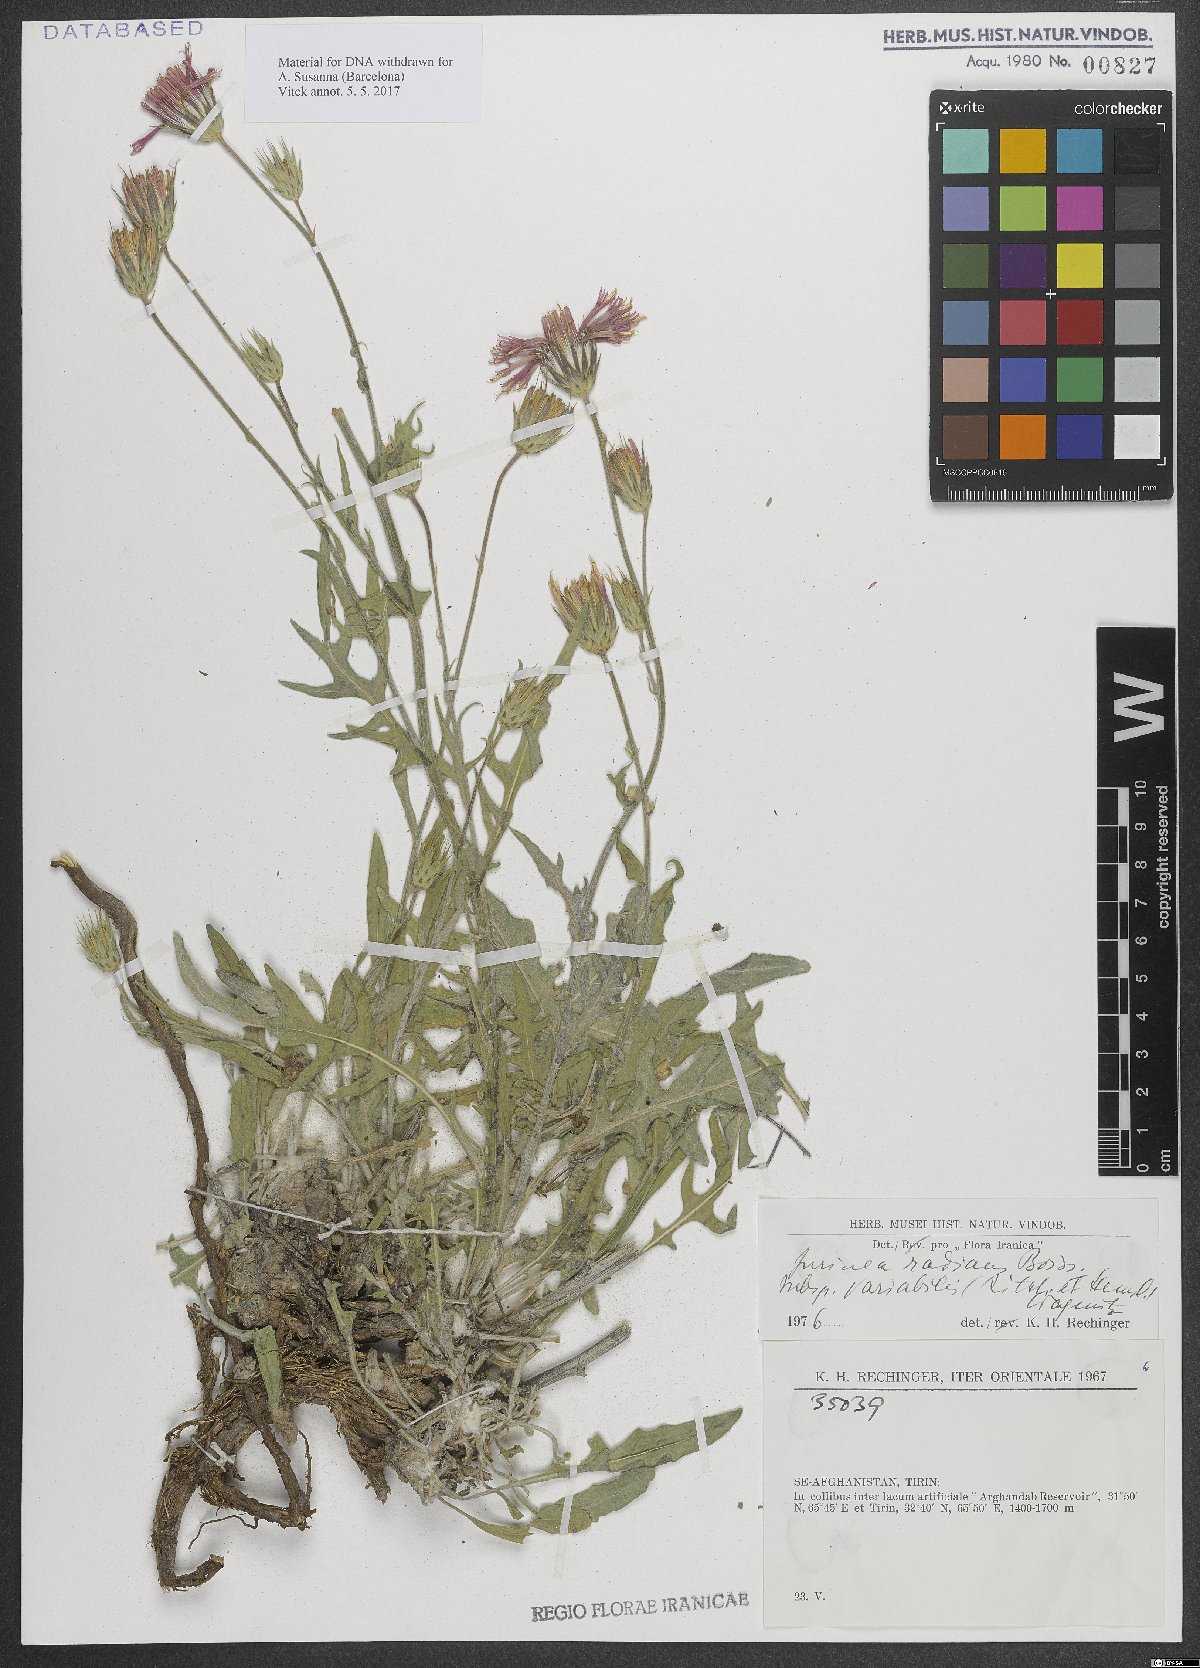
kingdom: Plantae
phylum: Tracheophyta
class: Magnoliopsida
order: Asterales
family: Asteraceae
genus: Jurinea
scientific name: Jurinea radians
